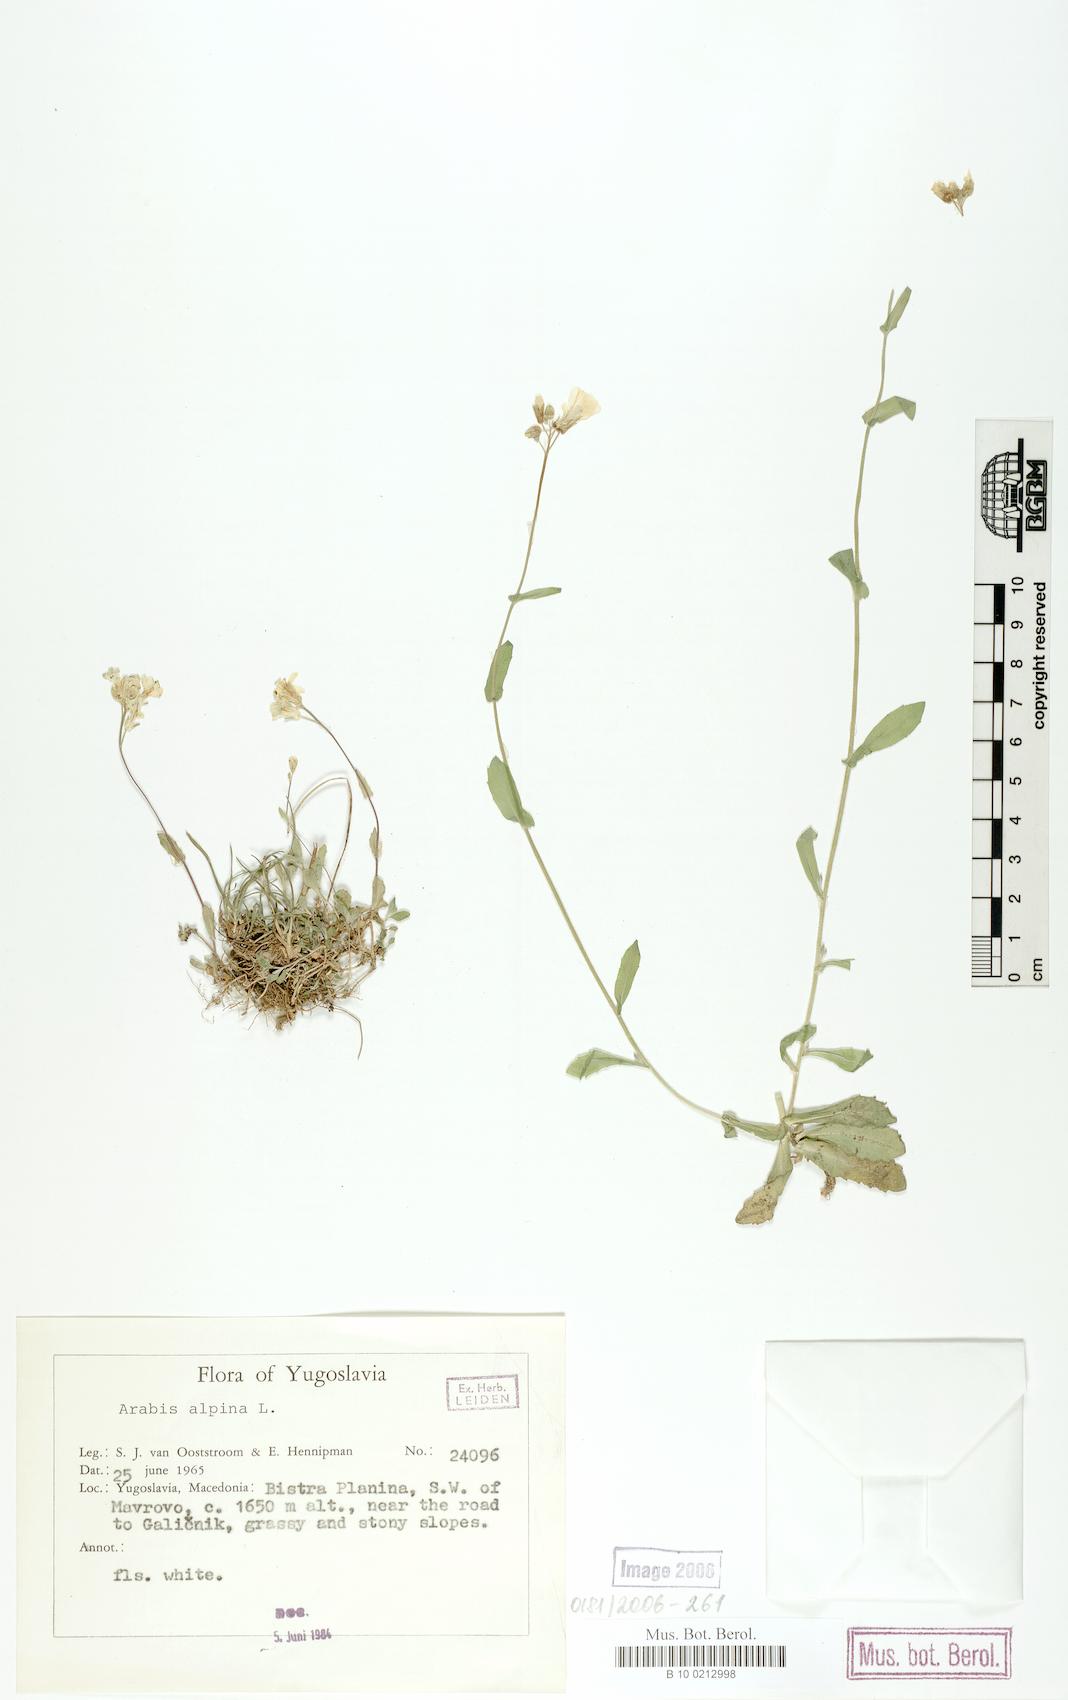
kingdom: Plantae
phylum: Tracheophyta
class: Magnoliopsida
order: Brassicales
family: Brassicaceae
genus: Arabis
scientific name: Arabis alpina
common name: Alpine rock-cress
